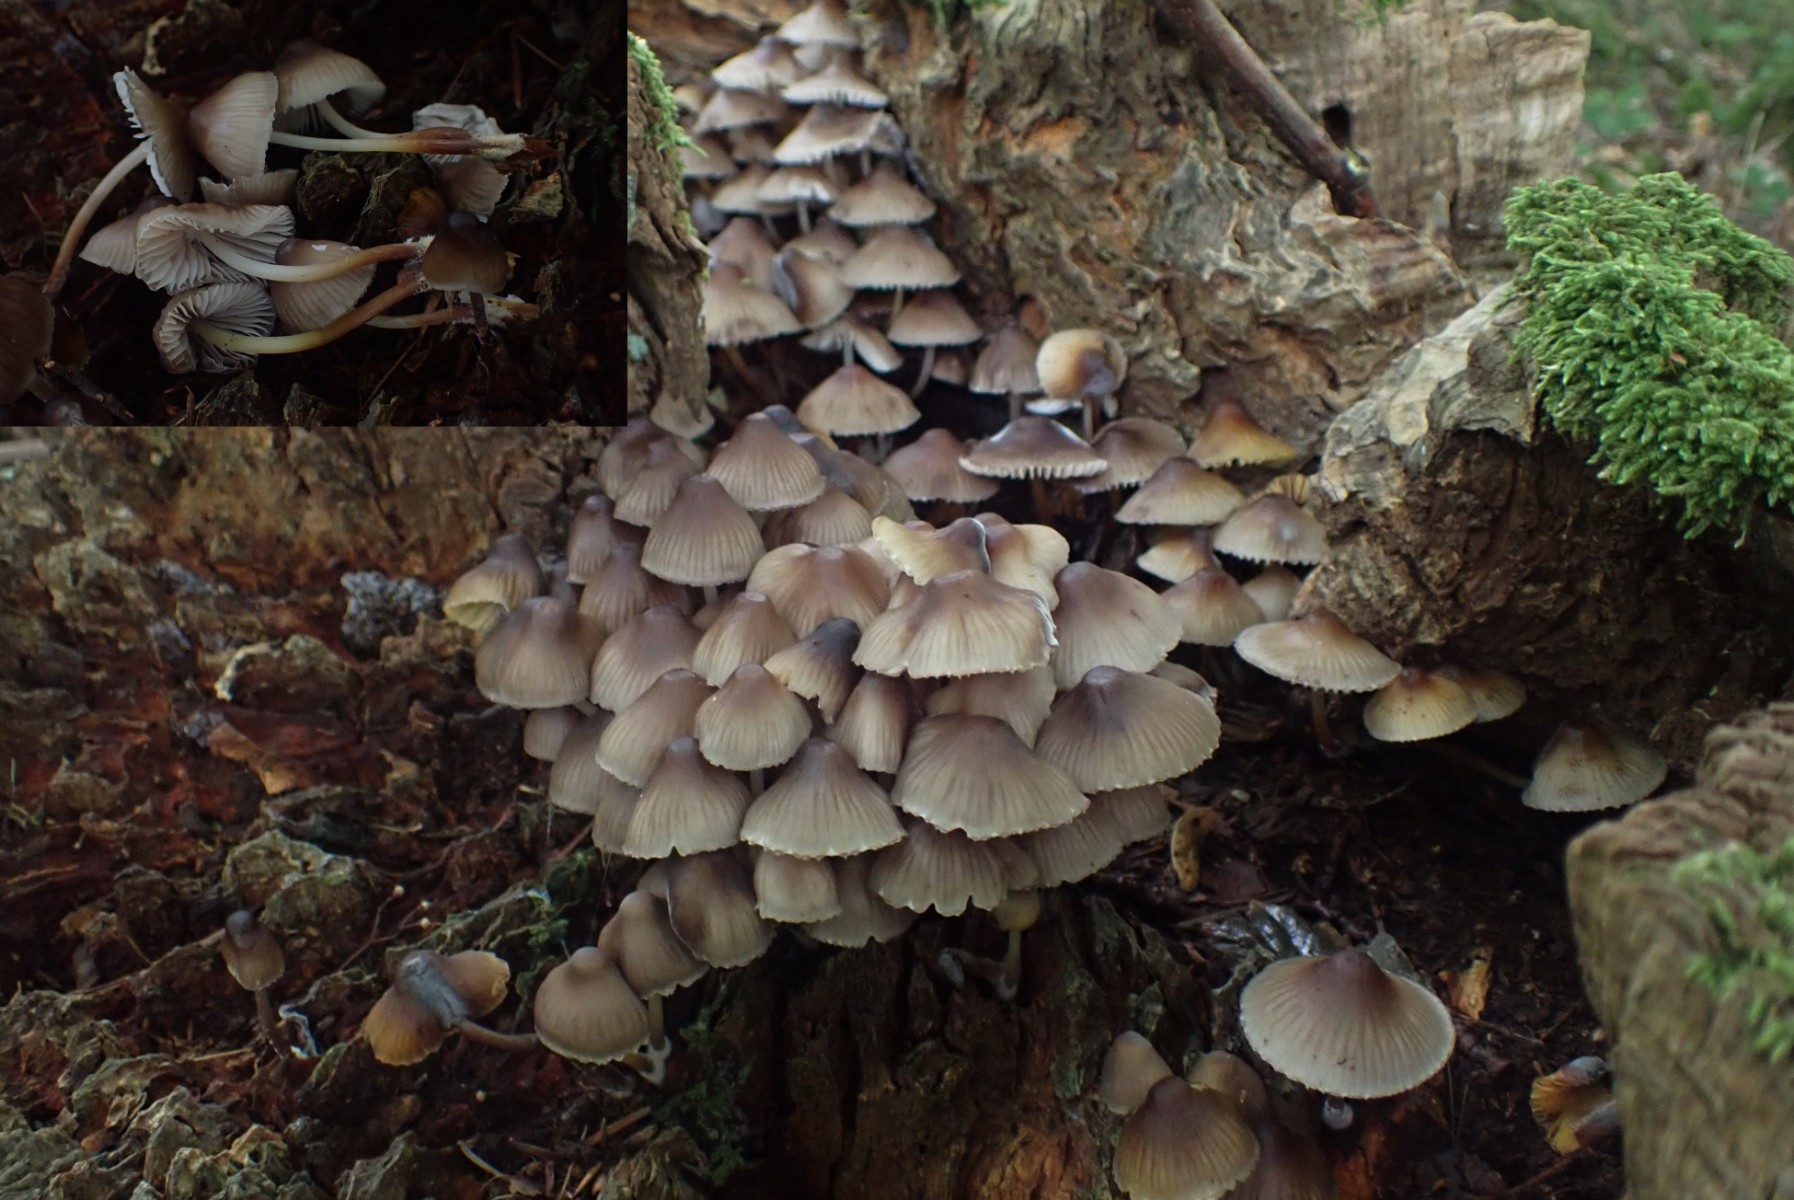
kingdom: Fungi
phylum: Basidiomycota
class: Agaricomycetes
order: Agaricales
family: Mycenaceae
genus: Mycena
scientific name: Mycena inclinata
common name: nikkende huesvamp
